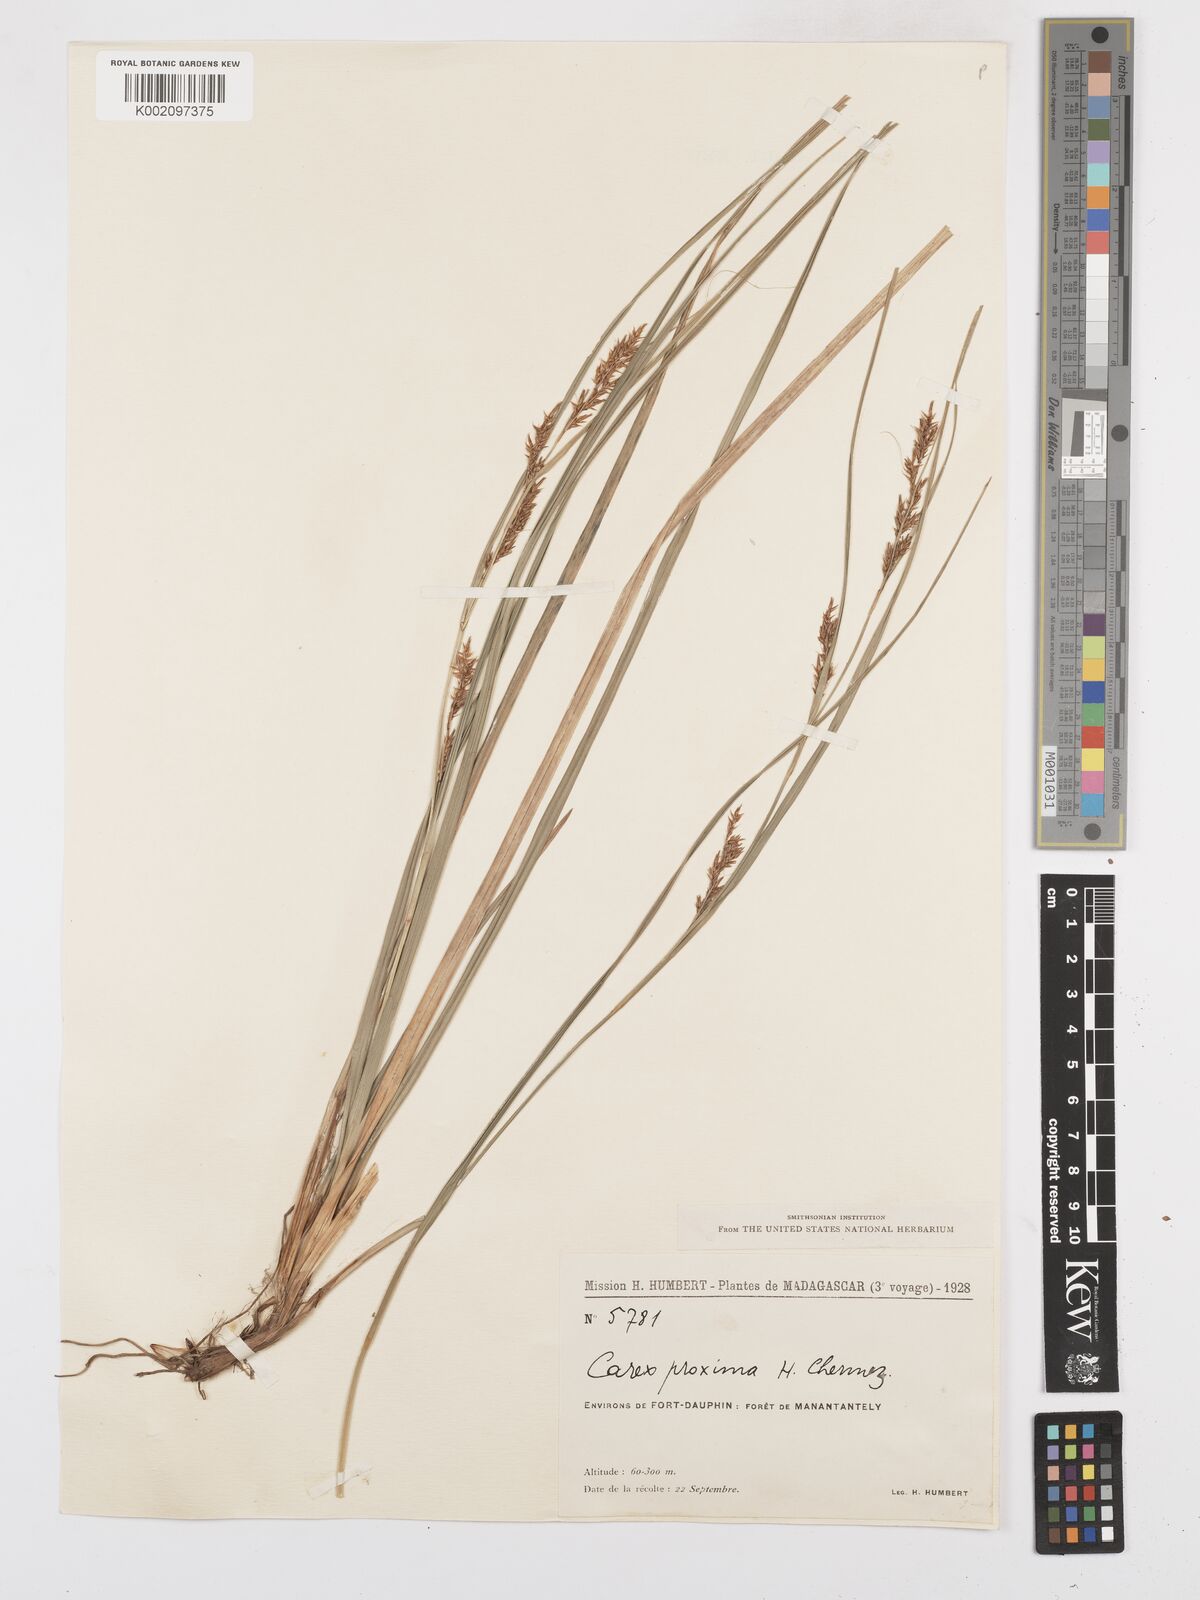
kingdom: Plantae
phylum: Tracheophyta
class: Liliopsida
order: Poales
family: Cyperaceae
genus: Carex
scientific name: Carex proxima
